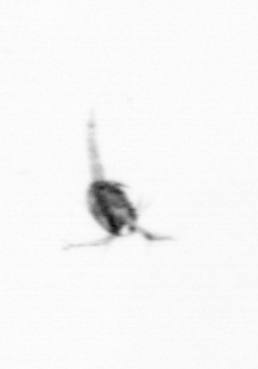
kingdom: Animalia
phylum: Arthropoda
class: Copepoda
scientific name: Copepoda
